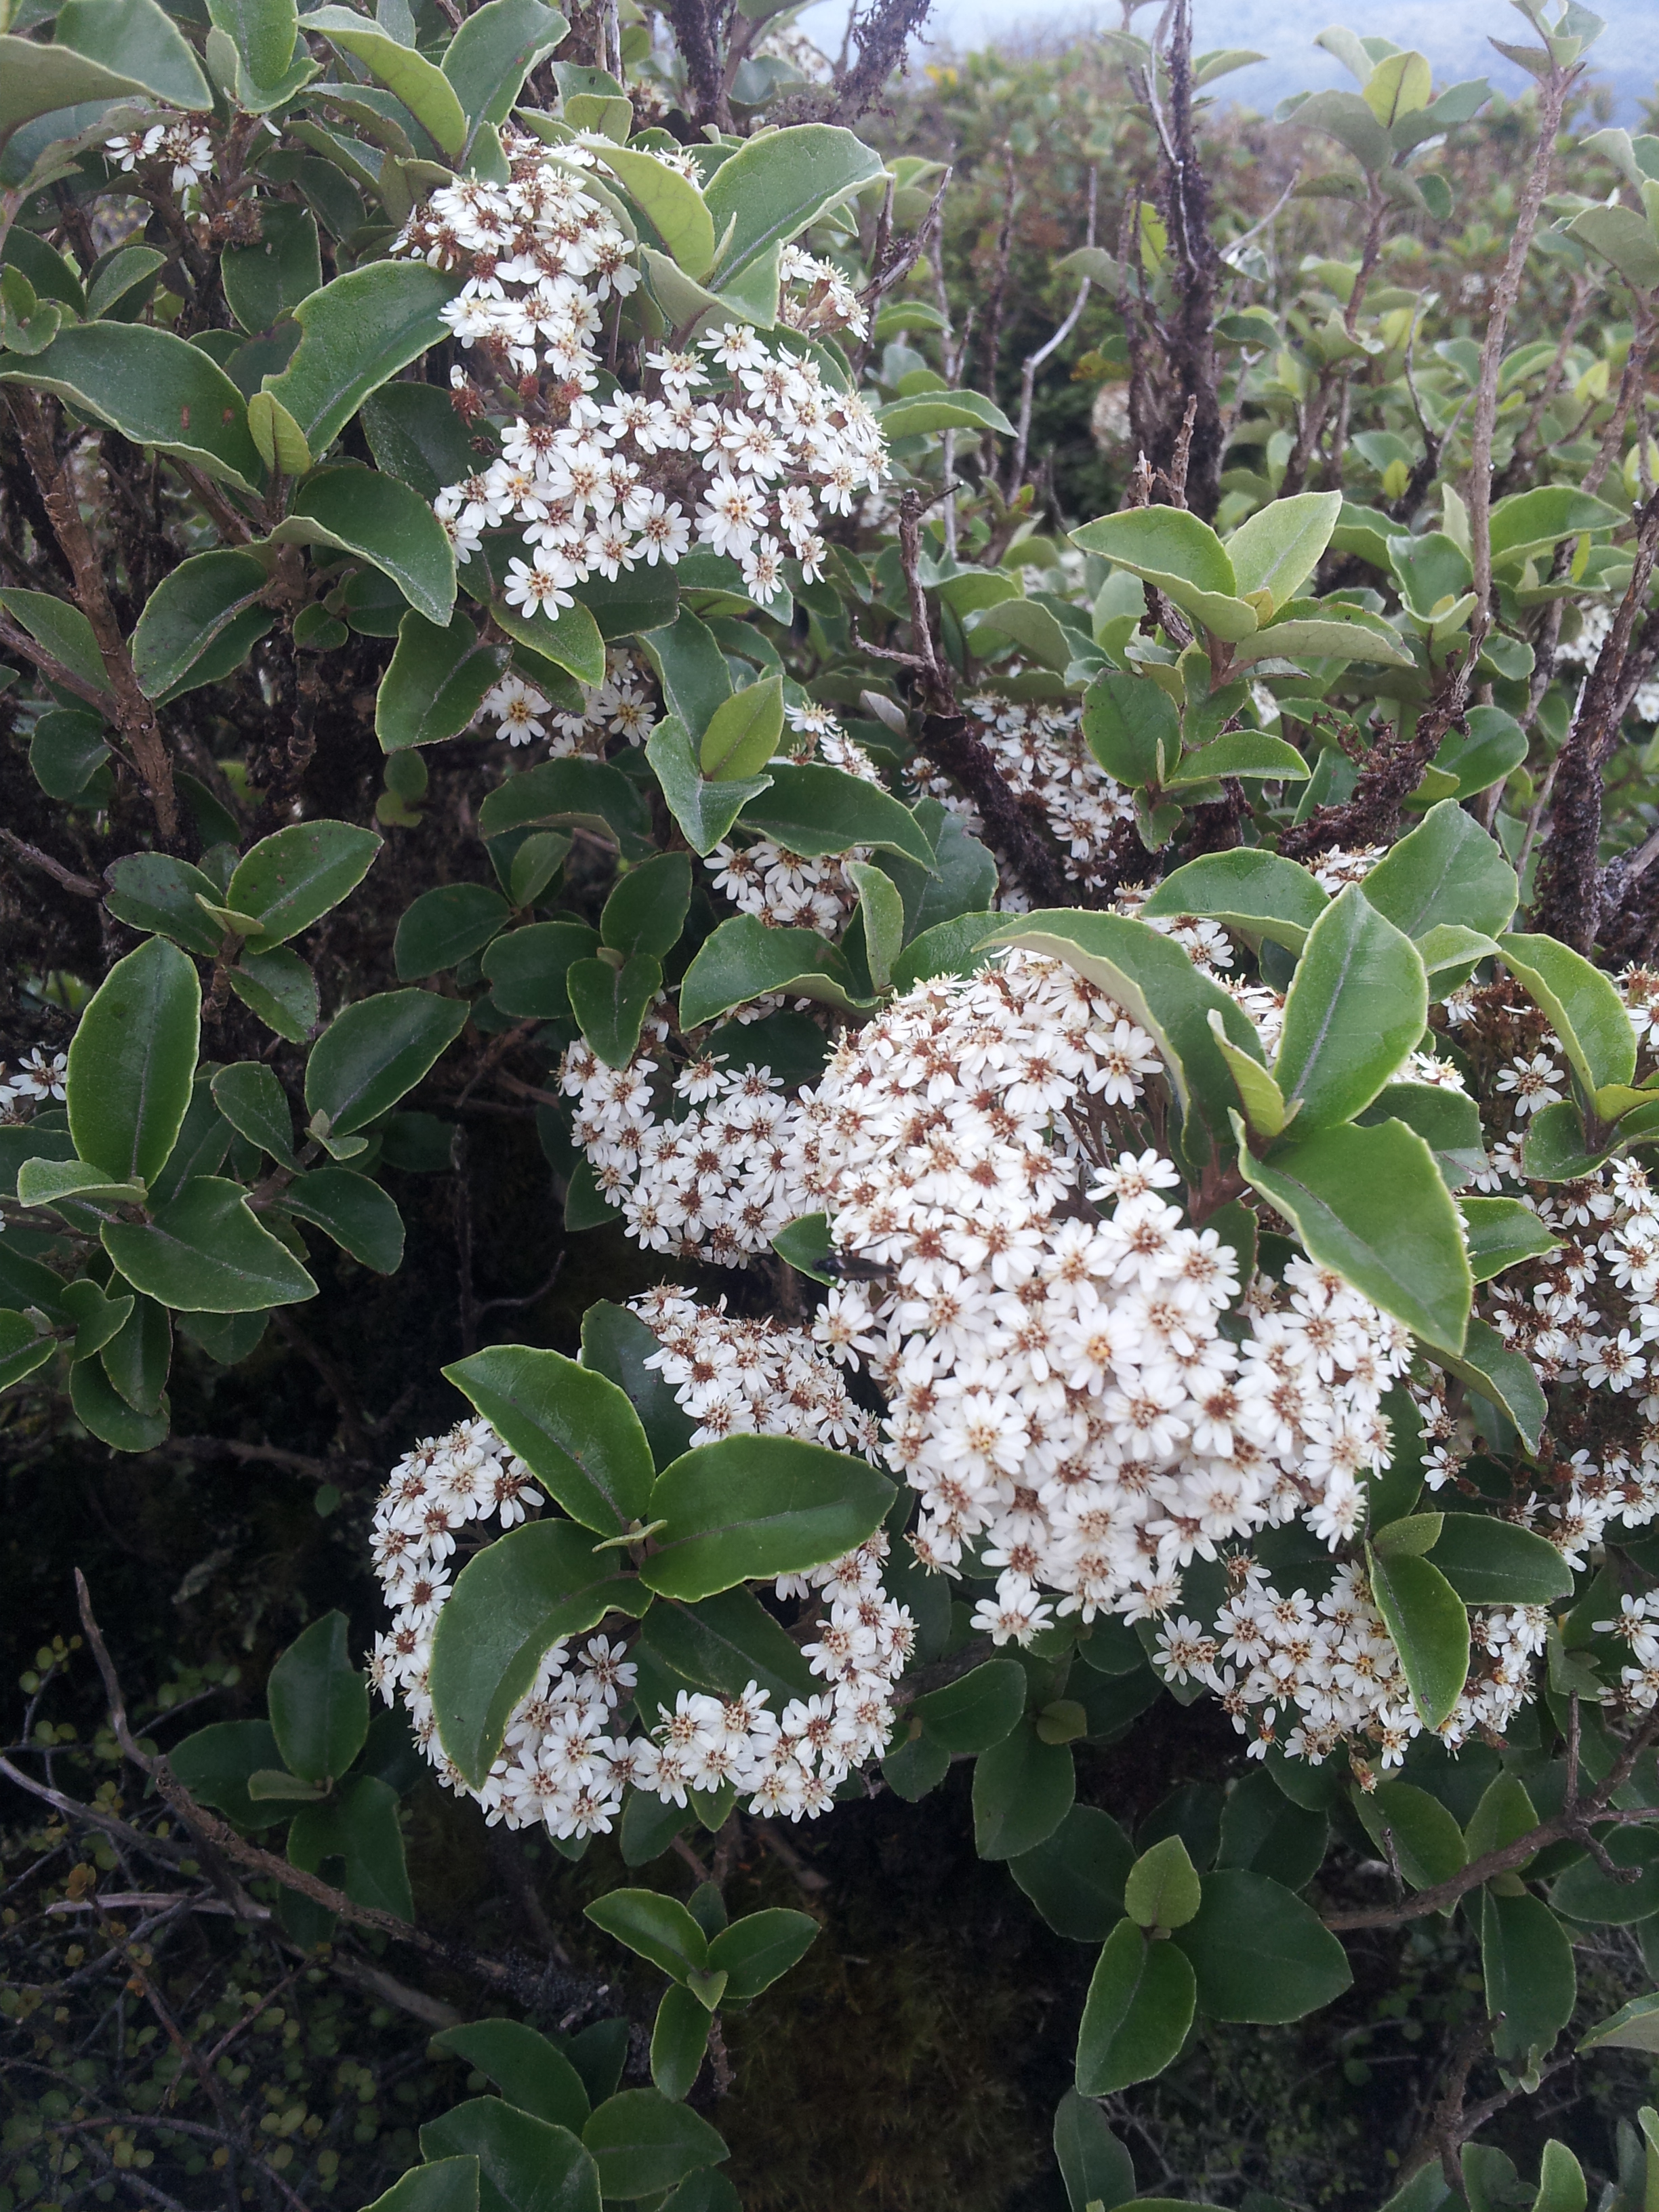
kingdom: Plantae
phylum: Tracheophyta
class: Magnoliopsida
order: Asterales
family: Asteraceae
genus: Olearia
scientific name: Olearia arborescens
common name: Glossy tree daisy
